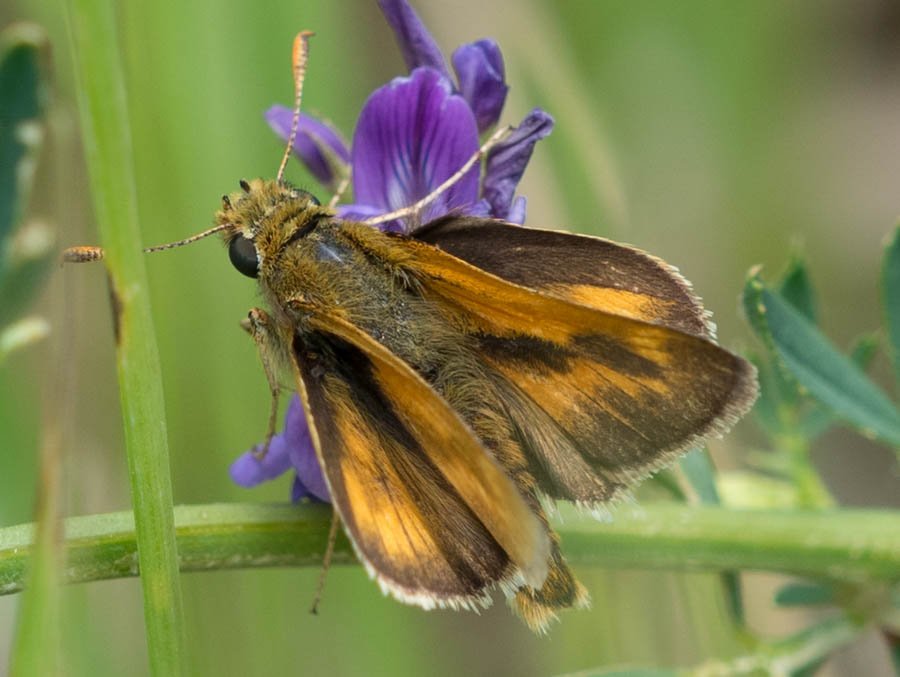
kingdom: Animalia
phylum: Arthropoda
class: Insecta
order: Lepidoptera
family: Hesperiidae
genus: Polites
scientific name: Polites
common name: Long Dash Skipper
